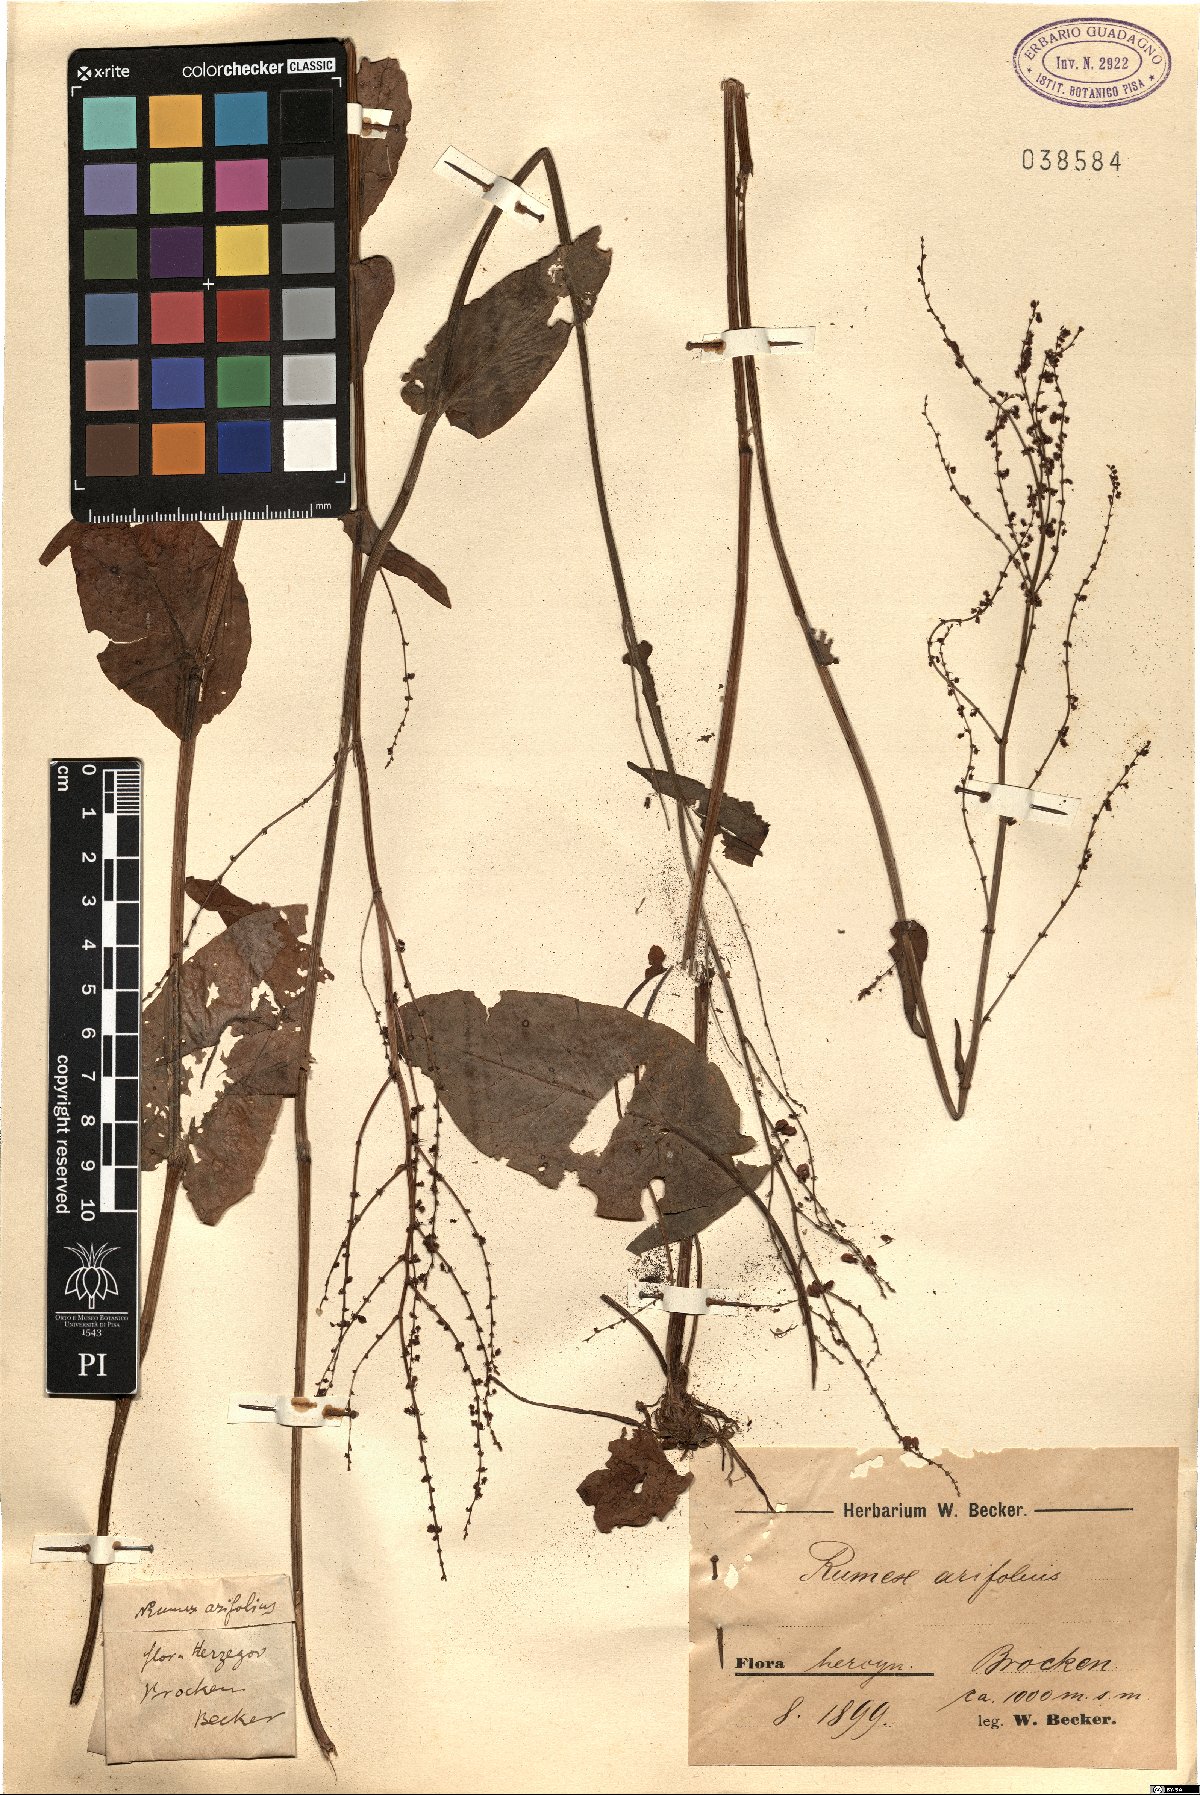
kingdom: Plantae
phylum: Tracheophyta
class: Magnoliopsida
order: Caryophyllales
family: Polygonaceae
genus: Rumex
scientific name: Rumex arifolius
